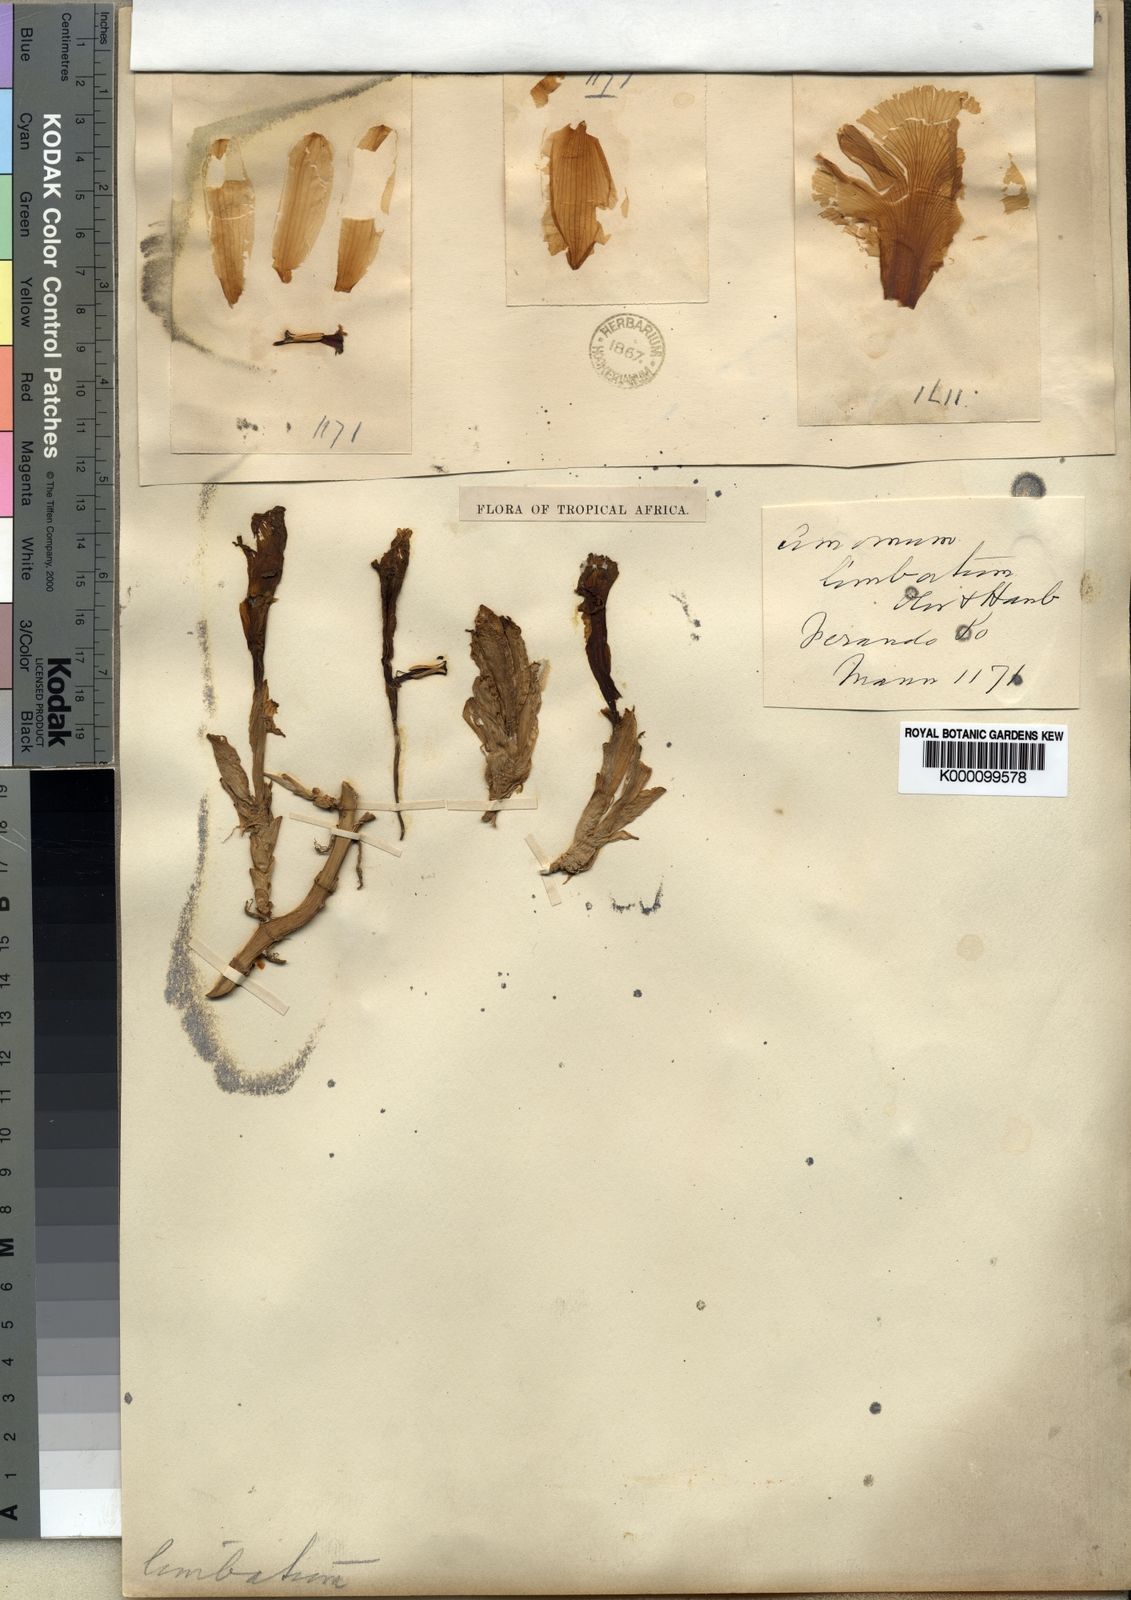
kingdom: Plantae
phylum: Tracheophyta
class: Liliopsida
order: Zingiberales
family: Zingiberaceae
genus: Aframomum
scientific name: Aframomum limbatum
